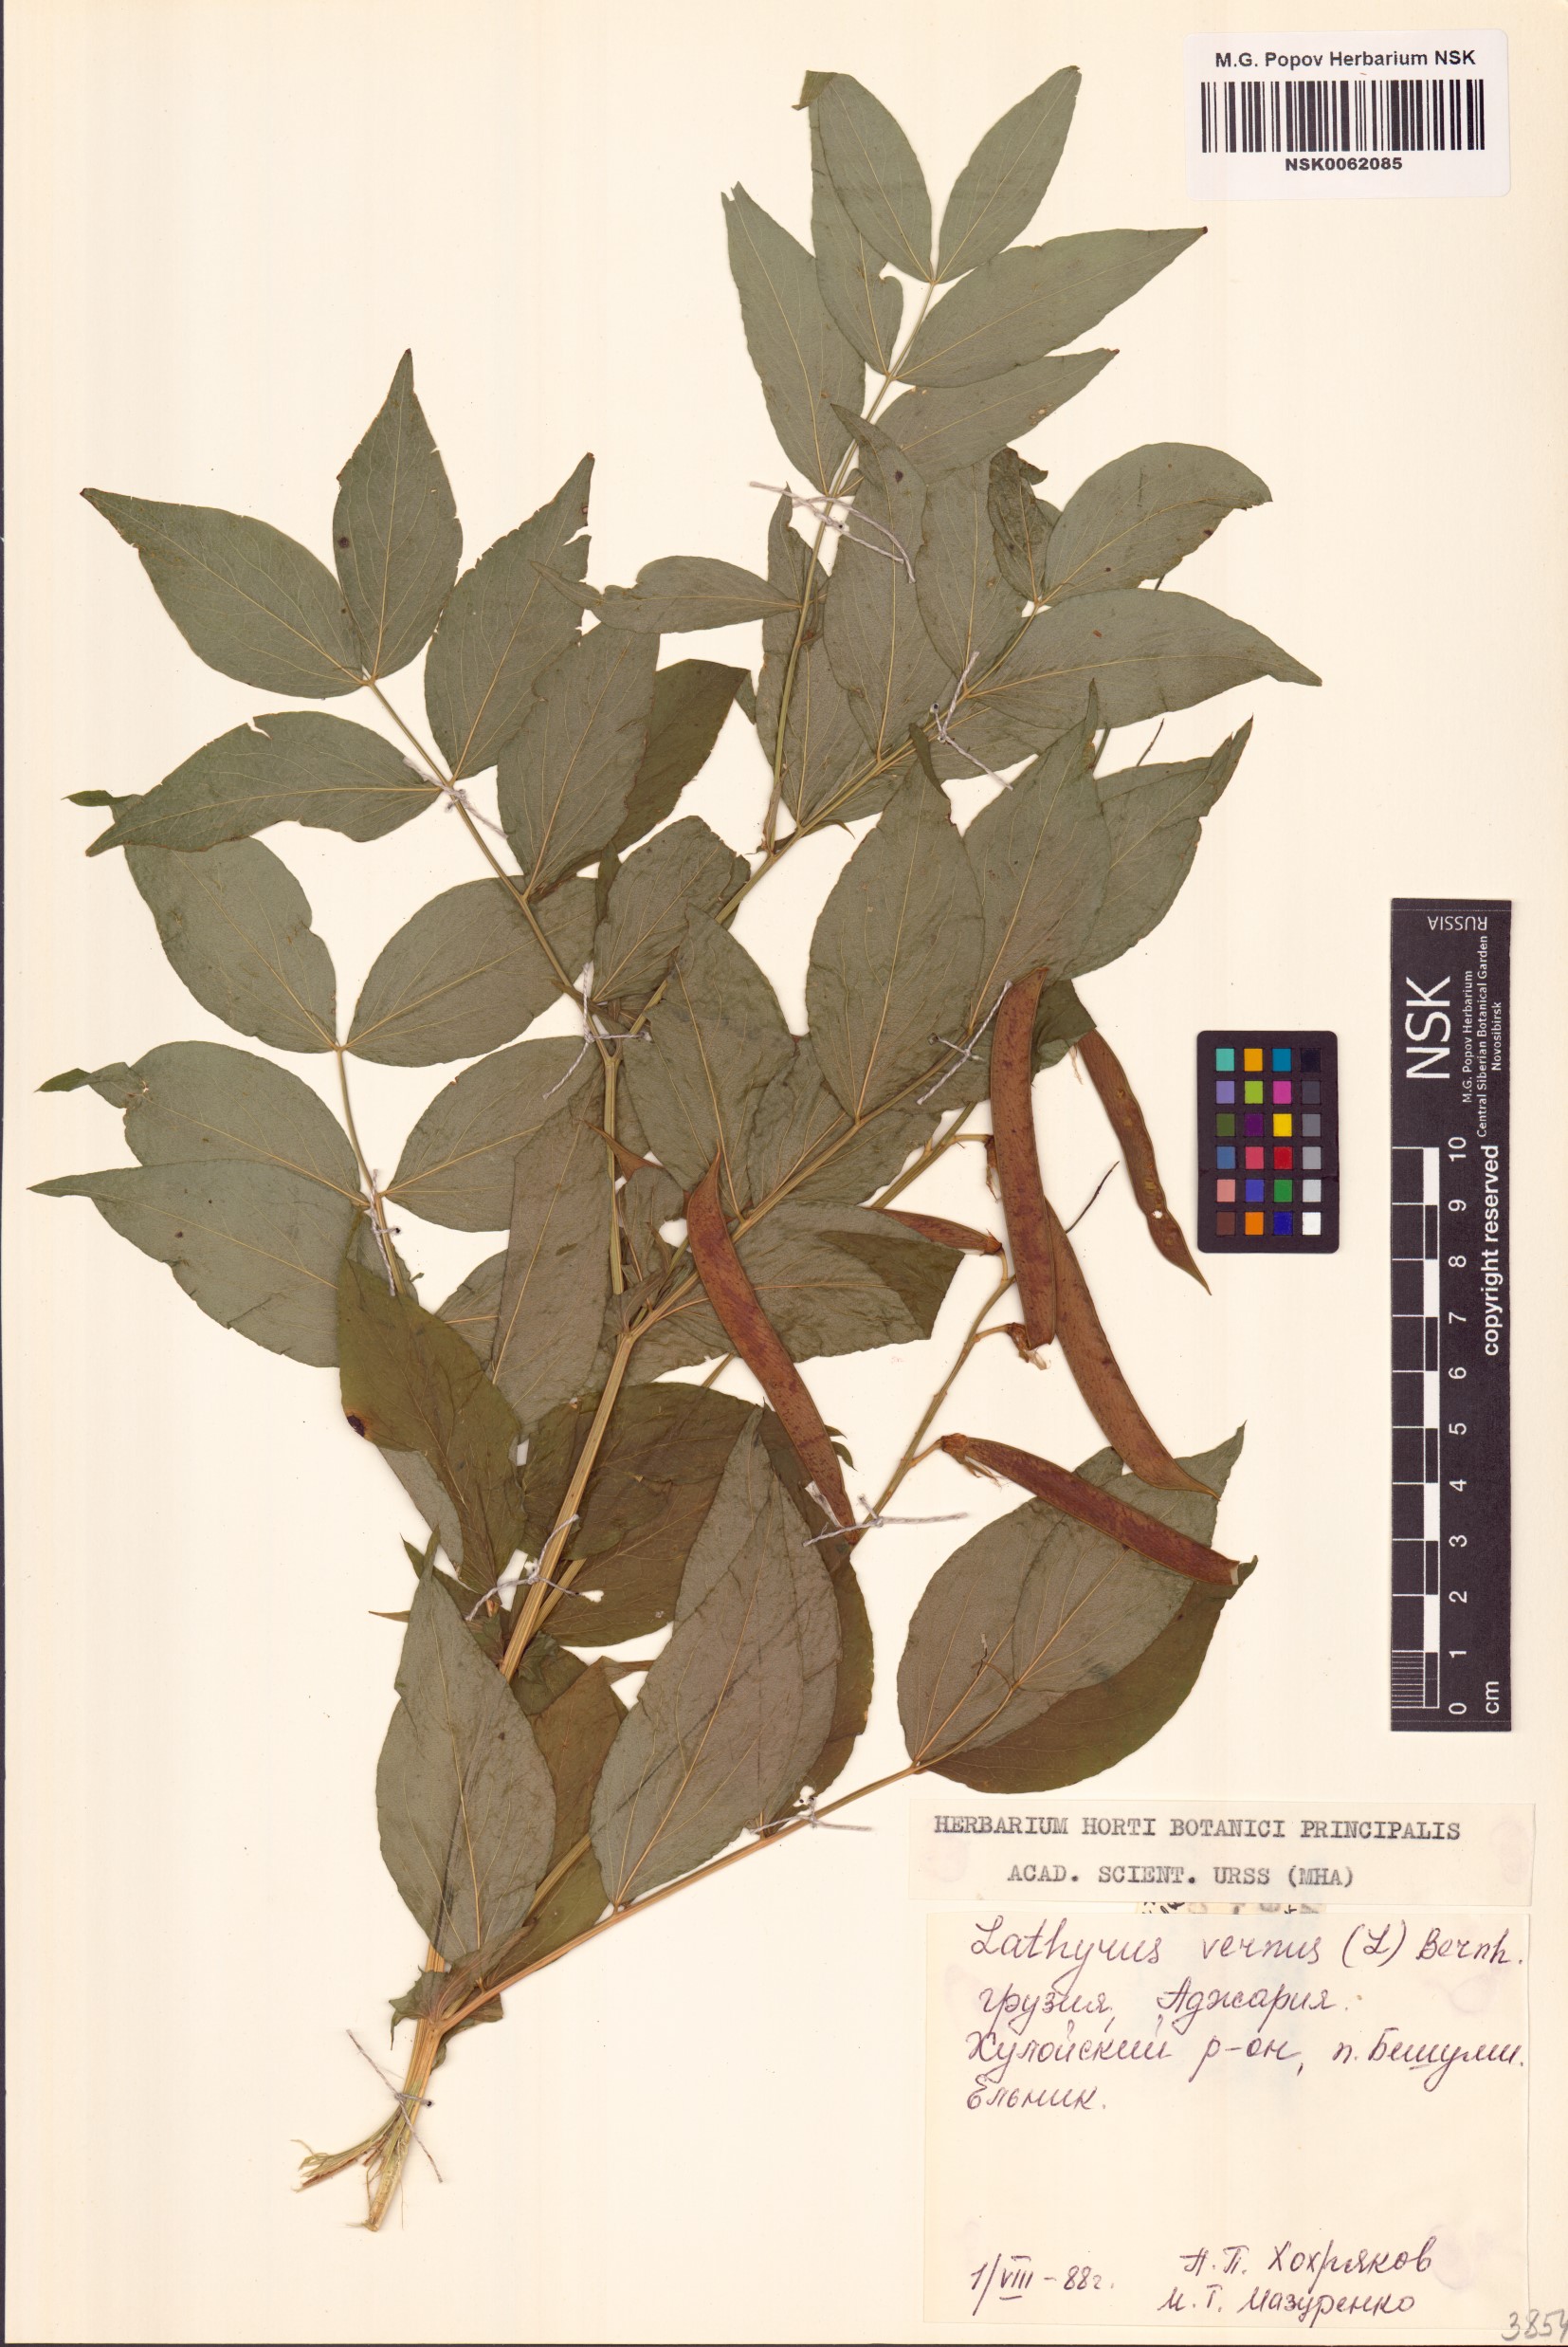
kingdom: Plantae
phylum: Tracheophyta
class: Magnoliopsida
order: Fabales
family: Fabaceae
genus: Lathyrus
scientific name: Lathyrus vernus
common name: Spring pea
